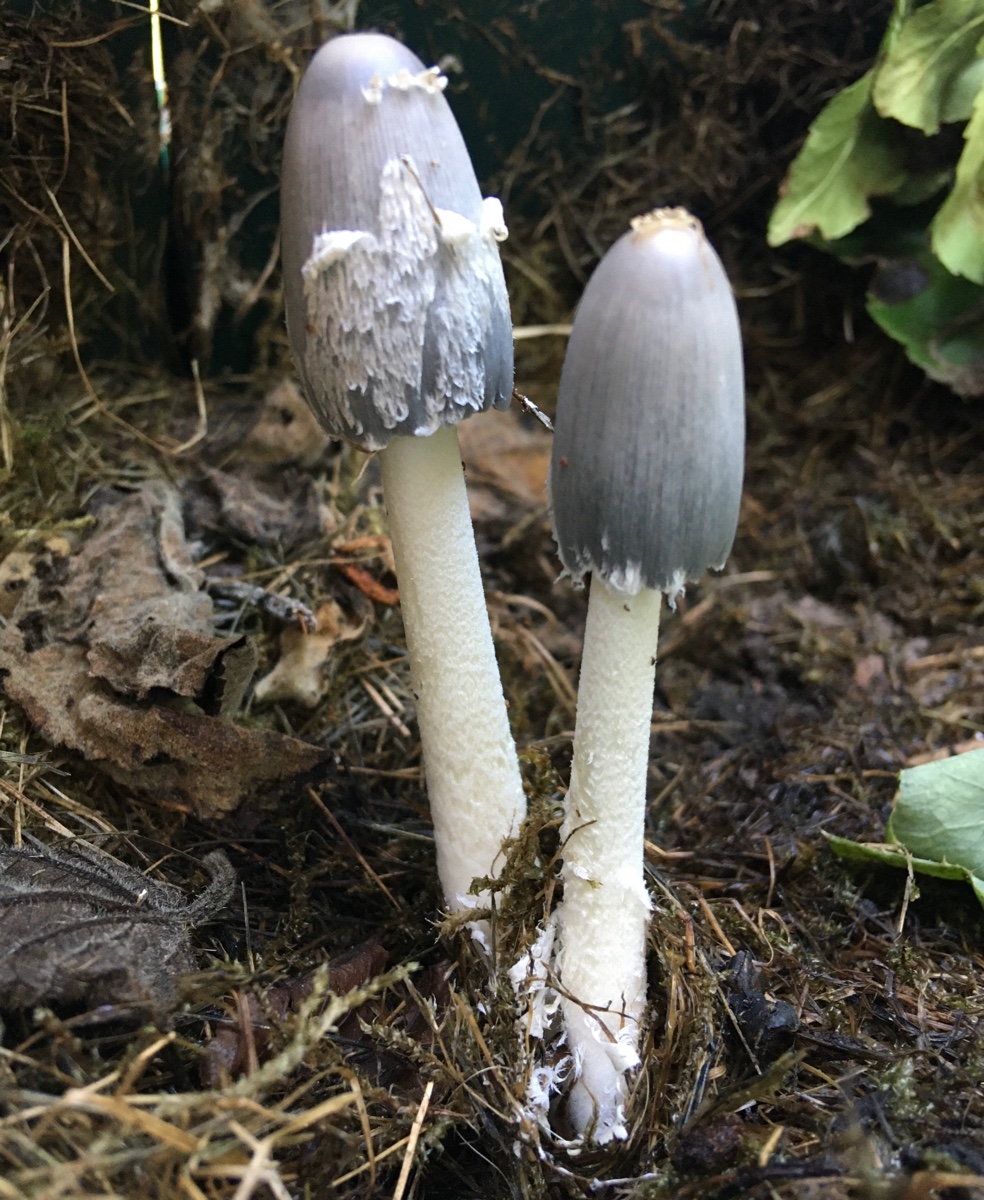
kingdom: Fungi
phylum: Basidiomycota
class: Agaricomycetes
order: Agaricales
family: Psathyrellaceae
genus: Coprinopsis
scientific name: Coprinopsis cinerea
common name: mødding-blækhat
